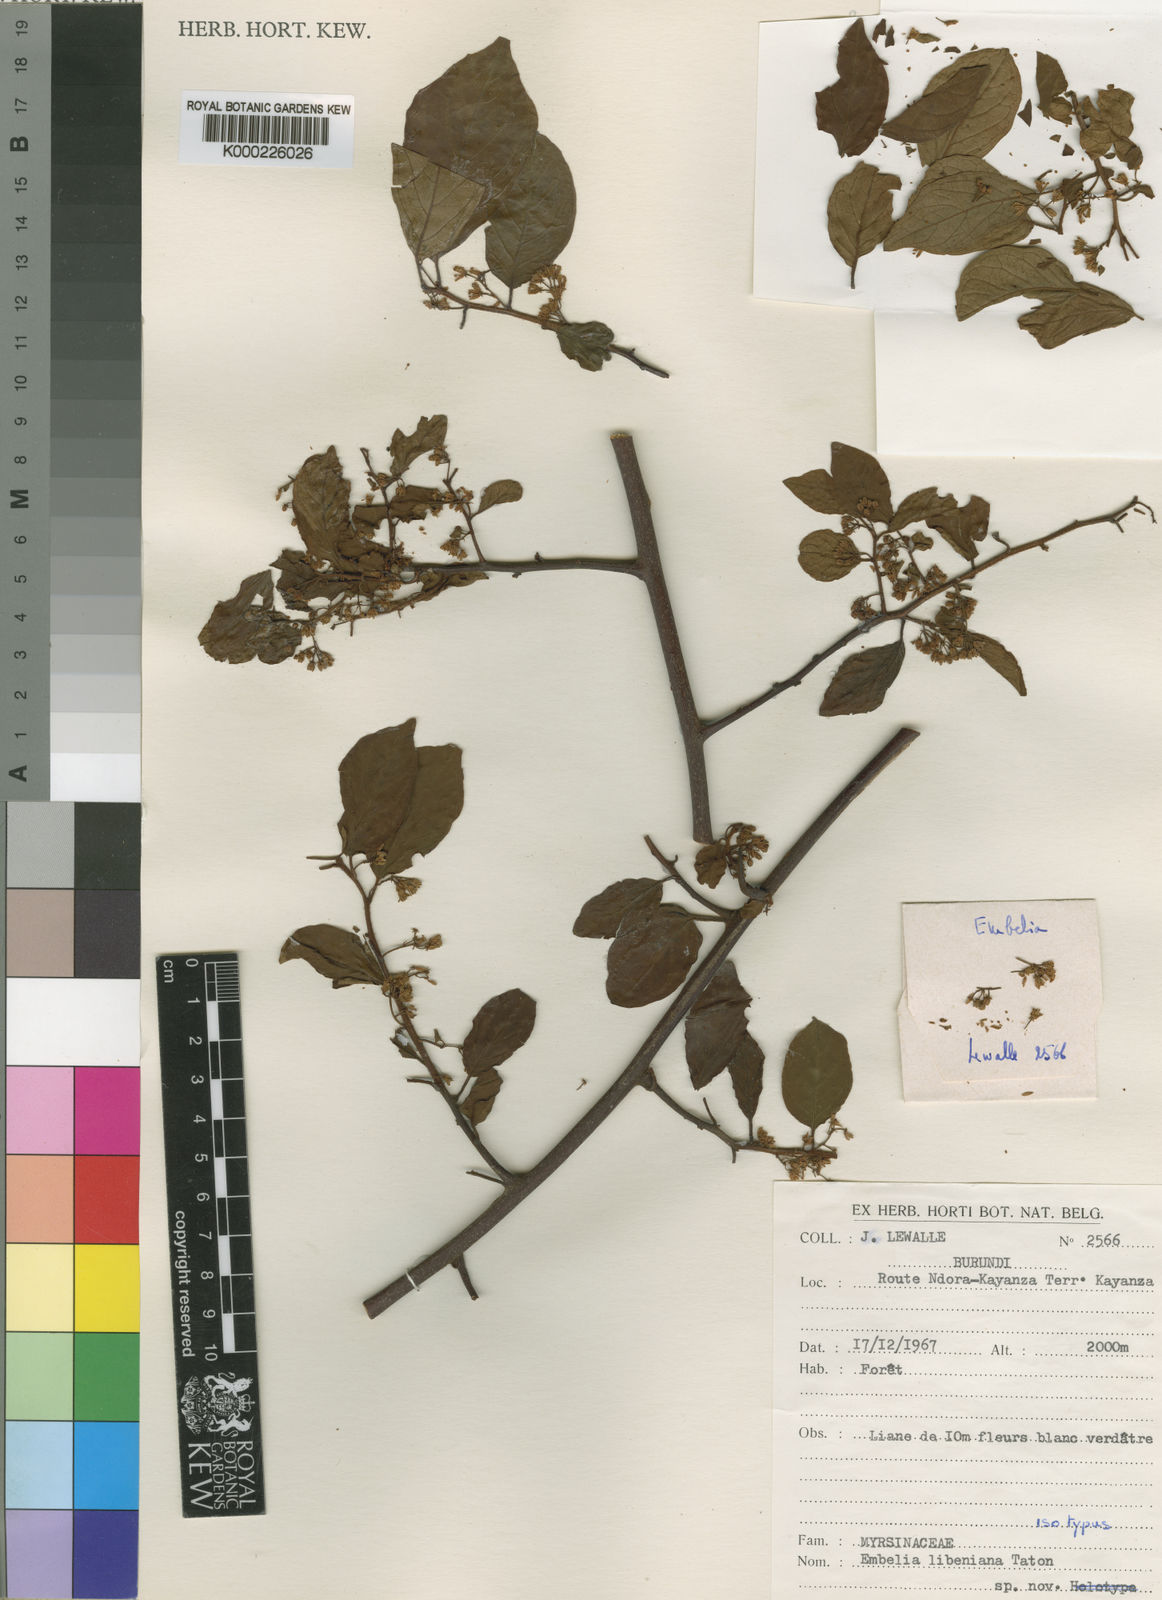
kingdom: Plantae
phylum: Tracheophyta
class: Magnoliopsida
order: Ericales
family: Primulaceae
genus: Embelia
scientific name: Embelia libeniana
